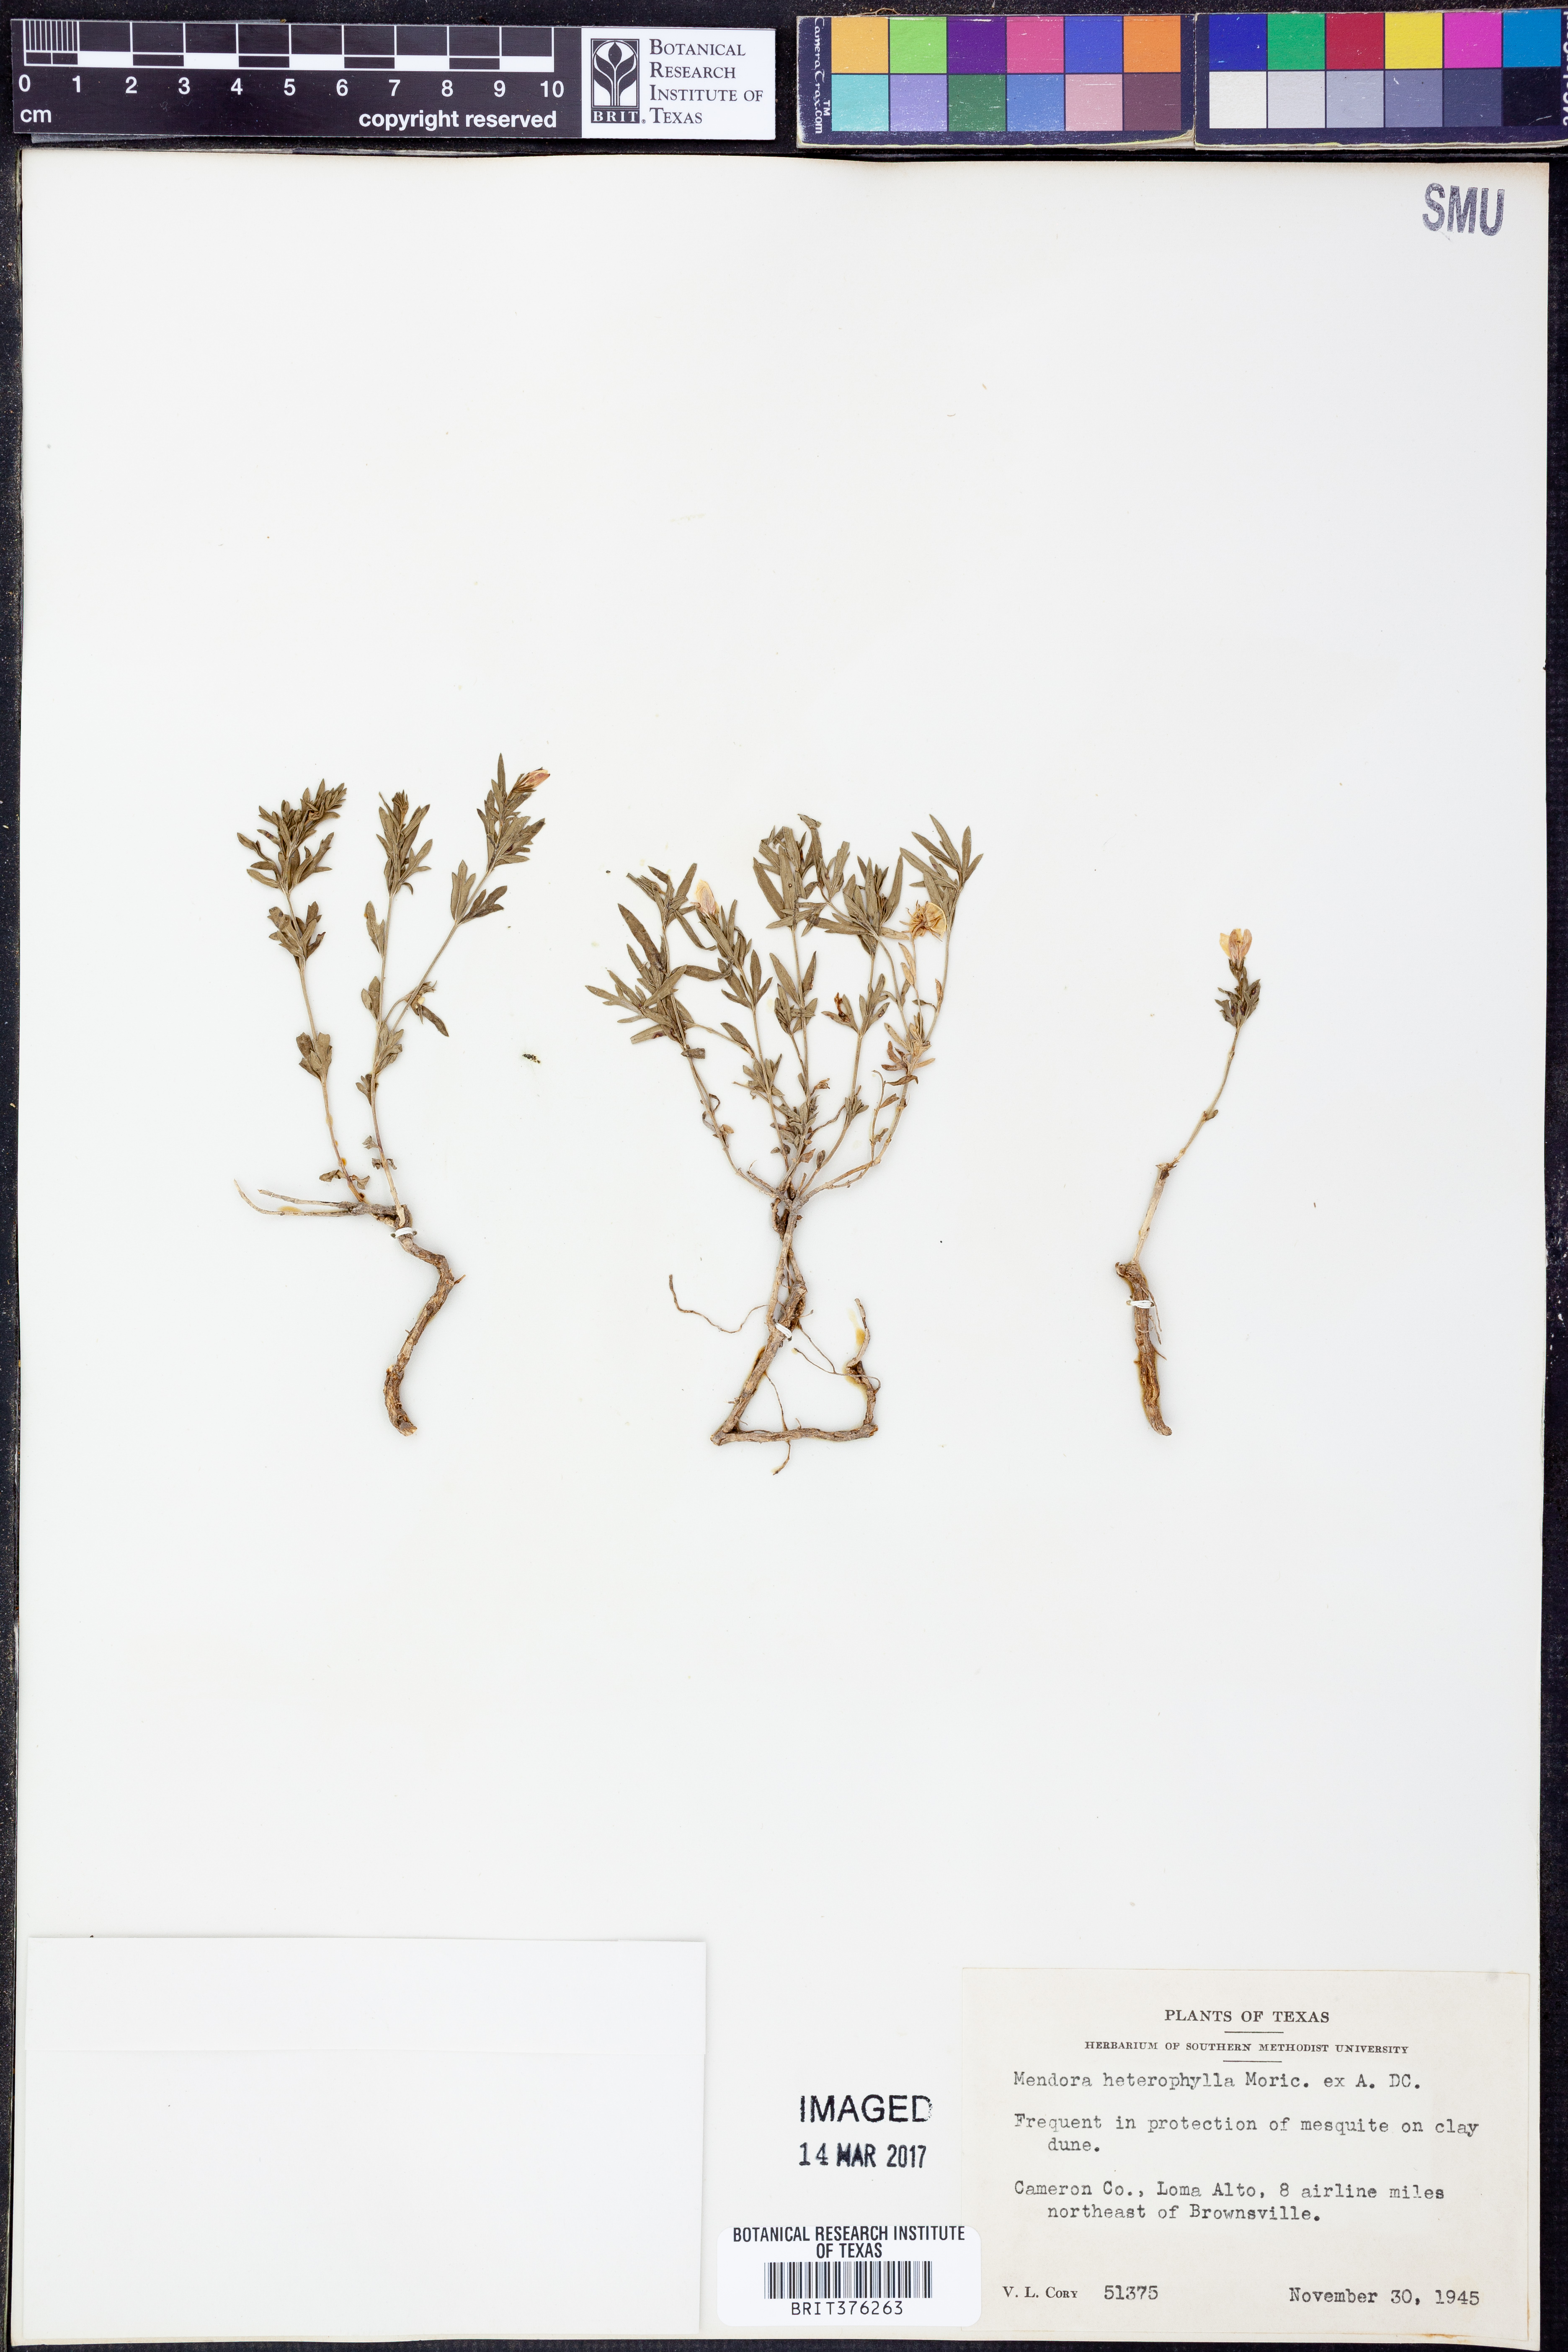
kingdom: Plantae
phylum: Tracheophyta
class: Magnoliopsida
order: Lamiales
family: Oleaceae
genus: Menodora
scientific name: Menodora heterophylla
